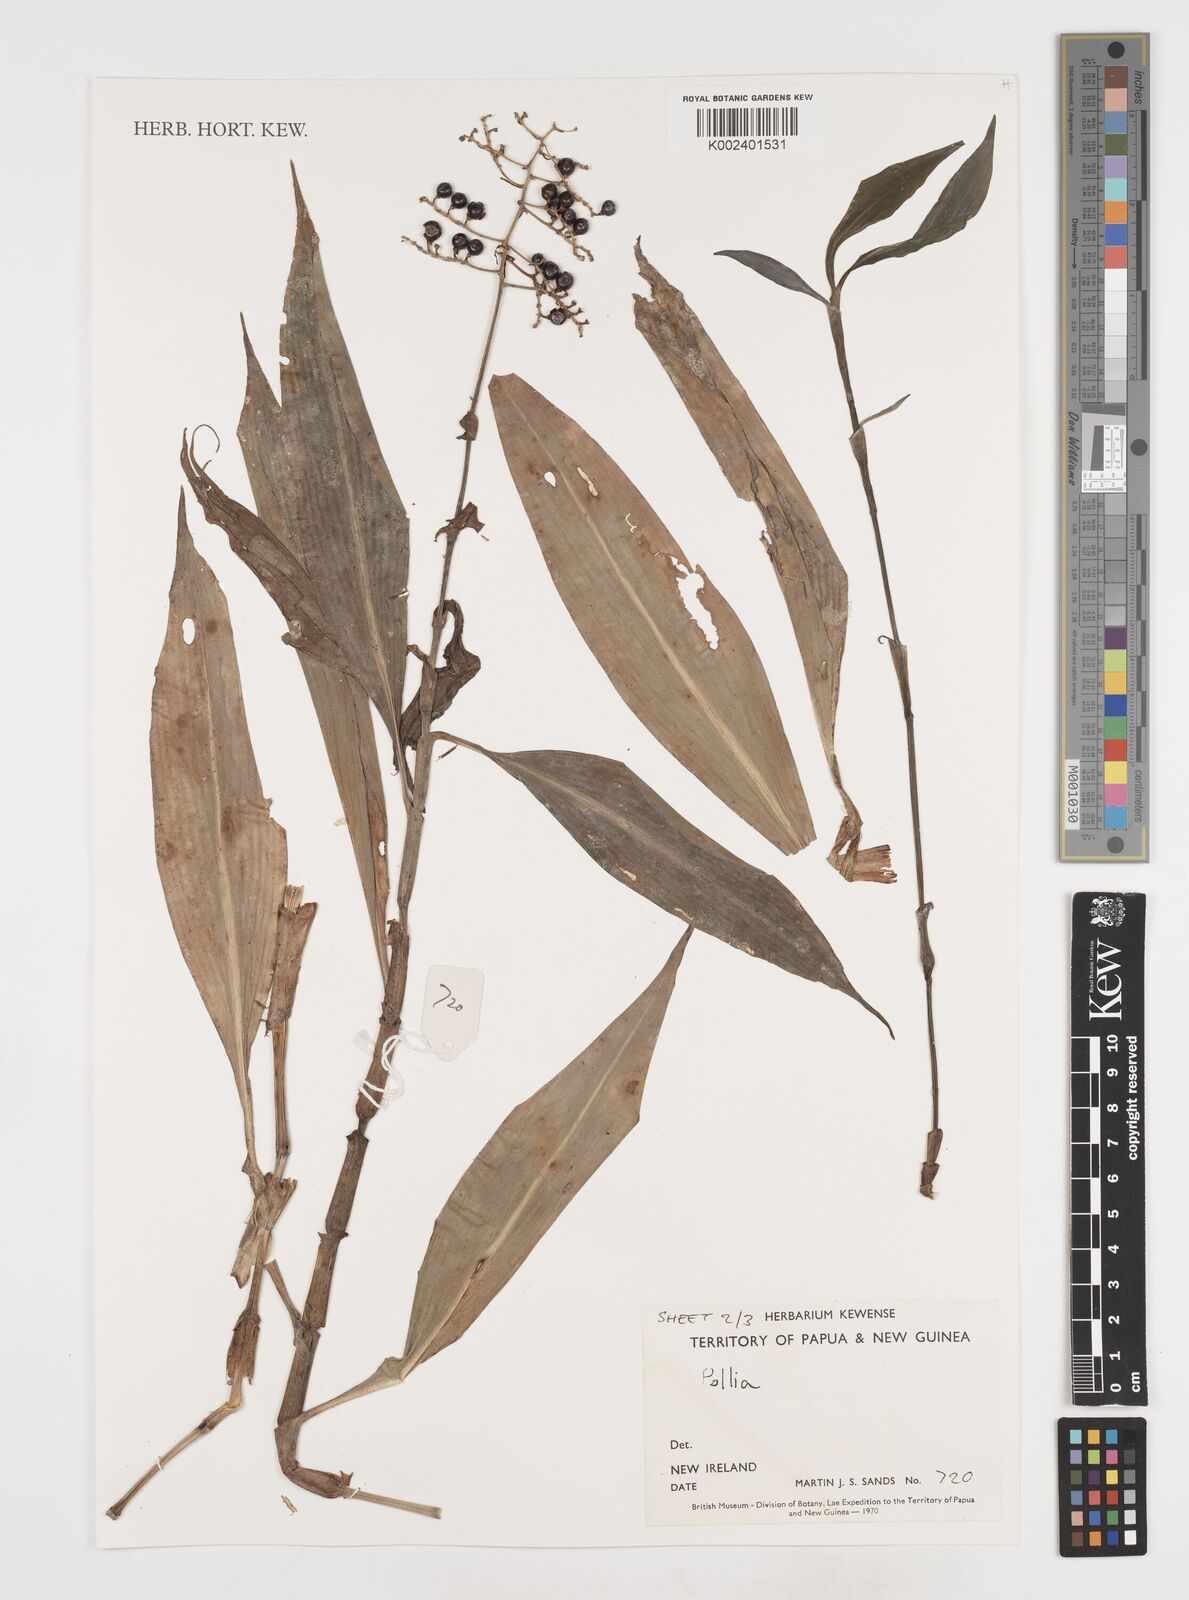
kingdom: Plantae
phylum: Tracheophyta
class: Liliopsida
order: Commelinales
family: Commelinaceae
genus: Pollia
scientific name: Pollia
